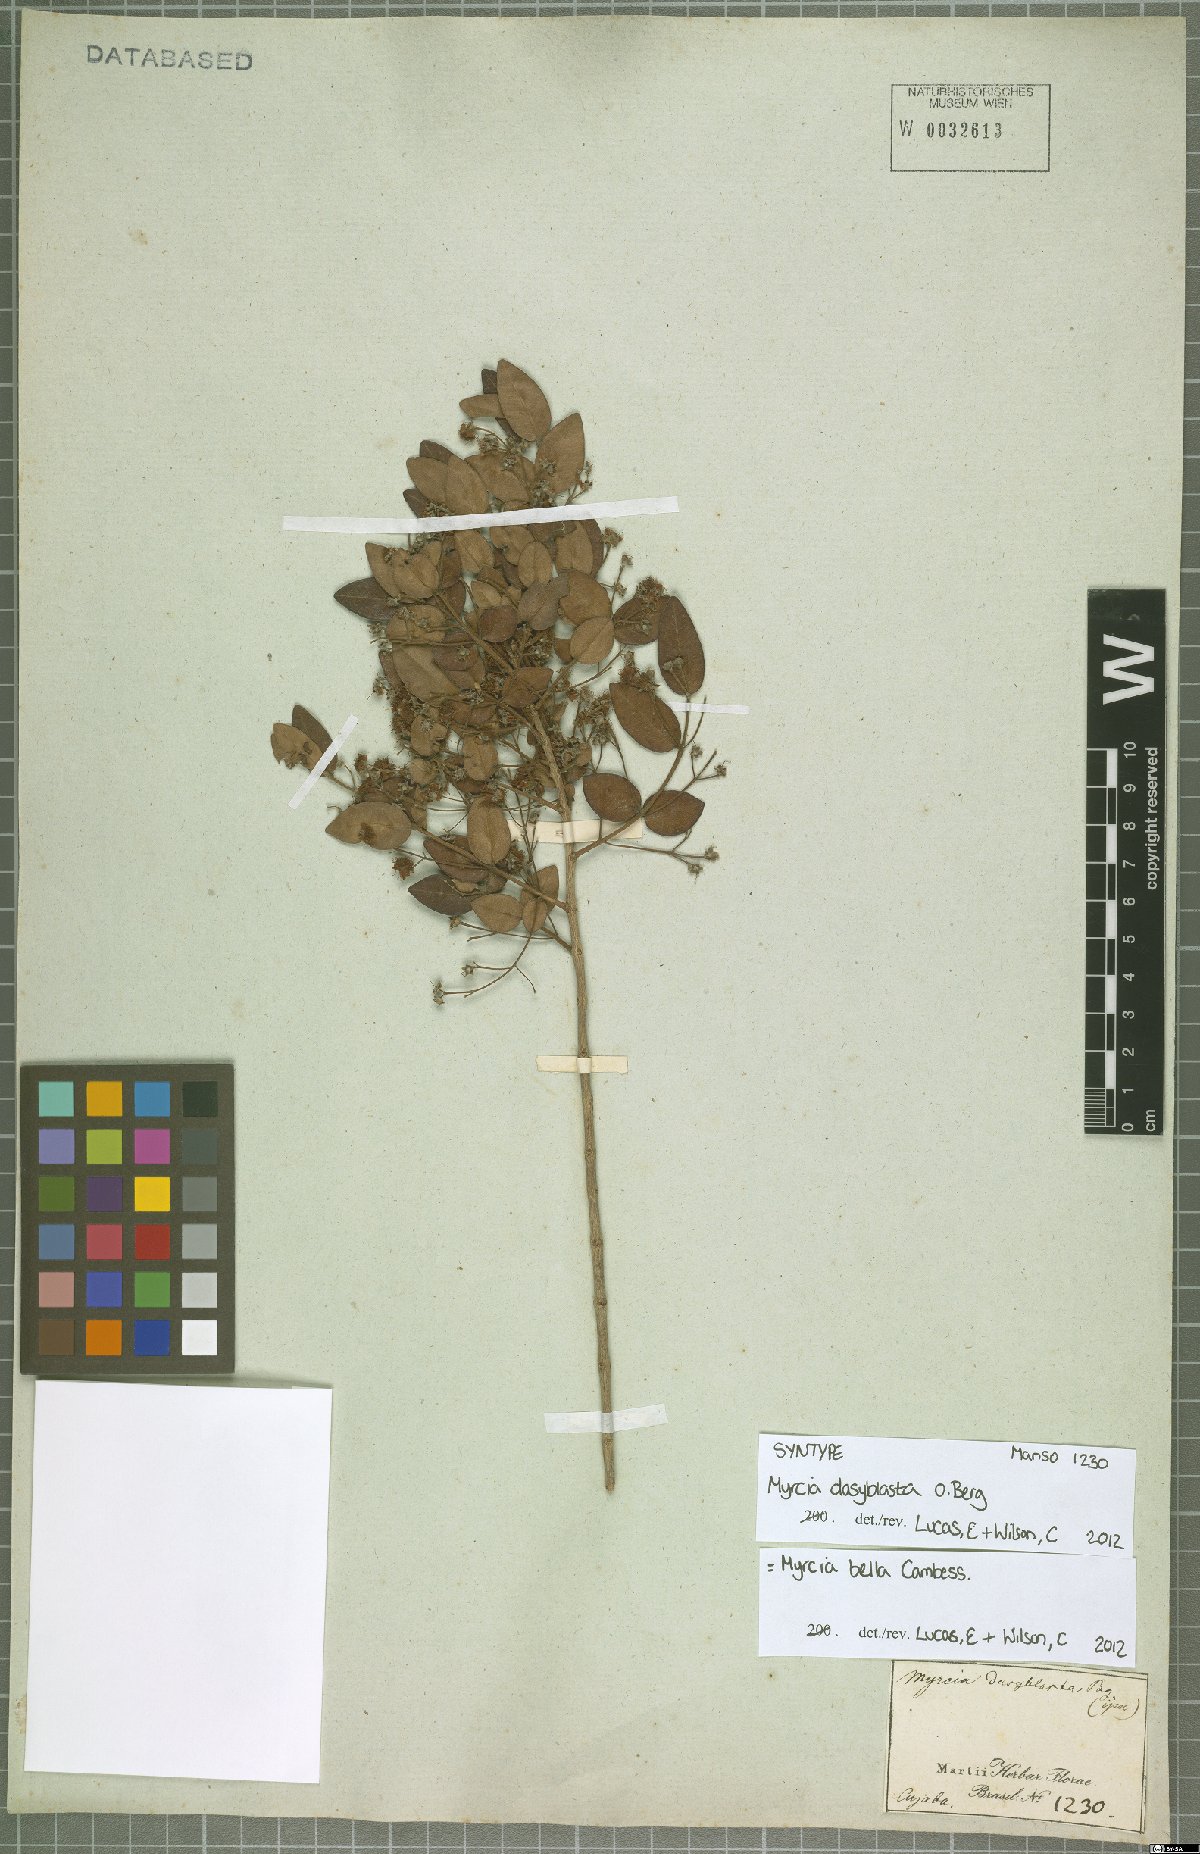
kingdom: Plantae
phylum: Tracheophyta
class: Magnoliopsida
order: Myrtales
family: Myrtaceae
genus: Myrcia
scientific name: Myrcia bella
